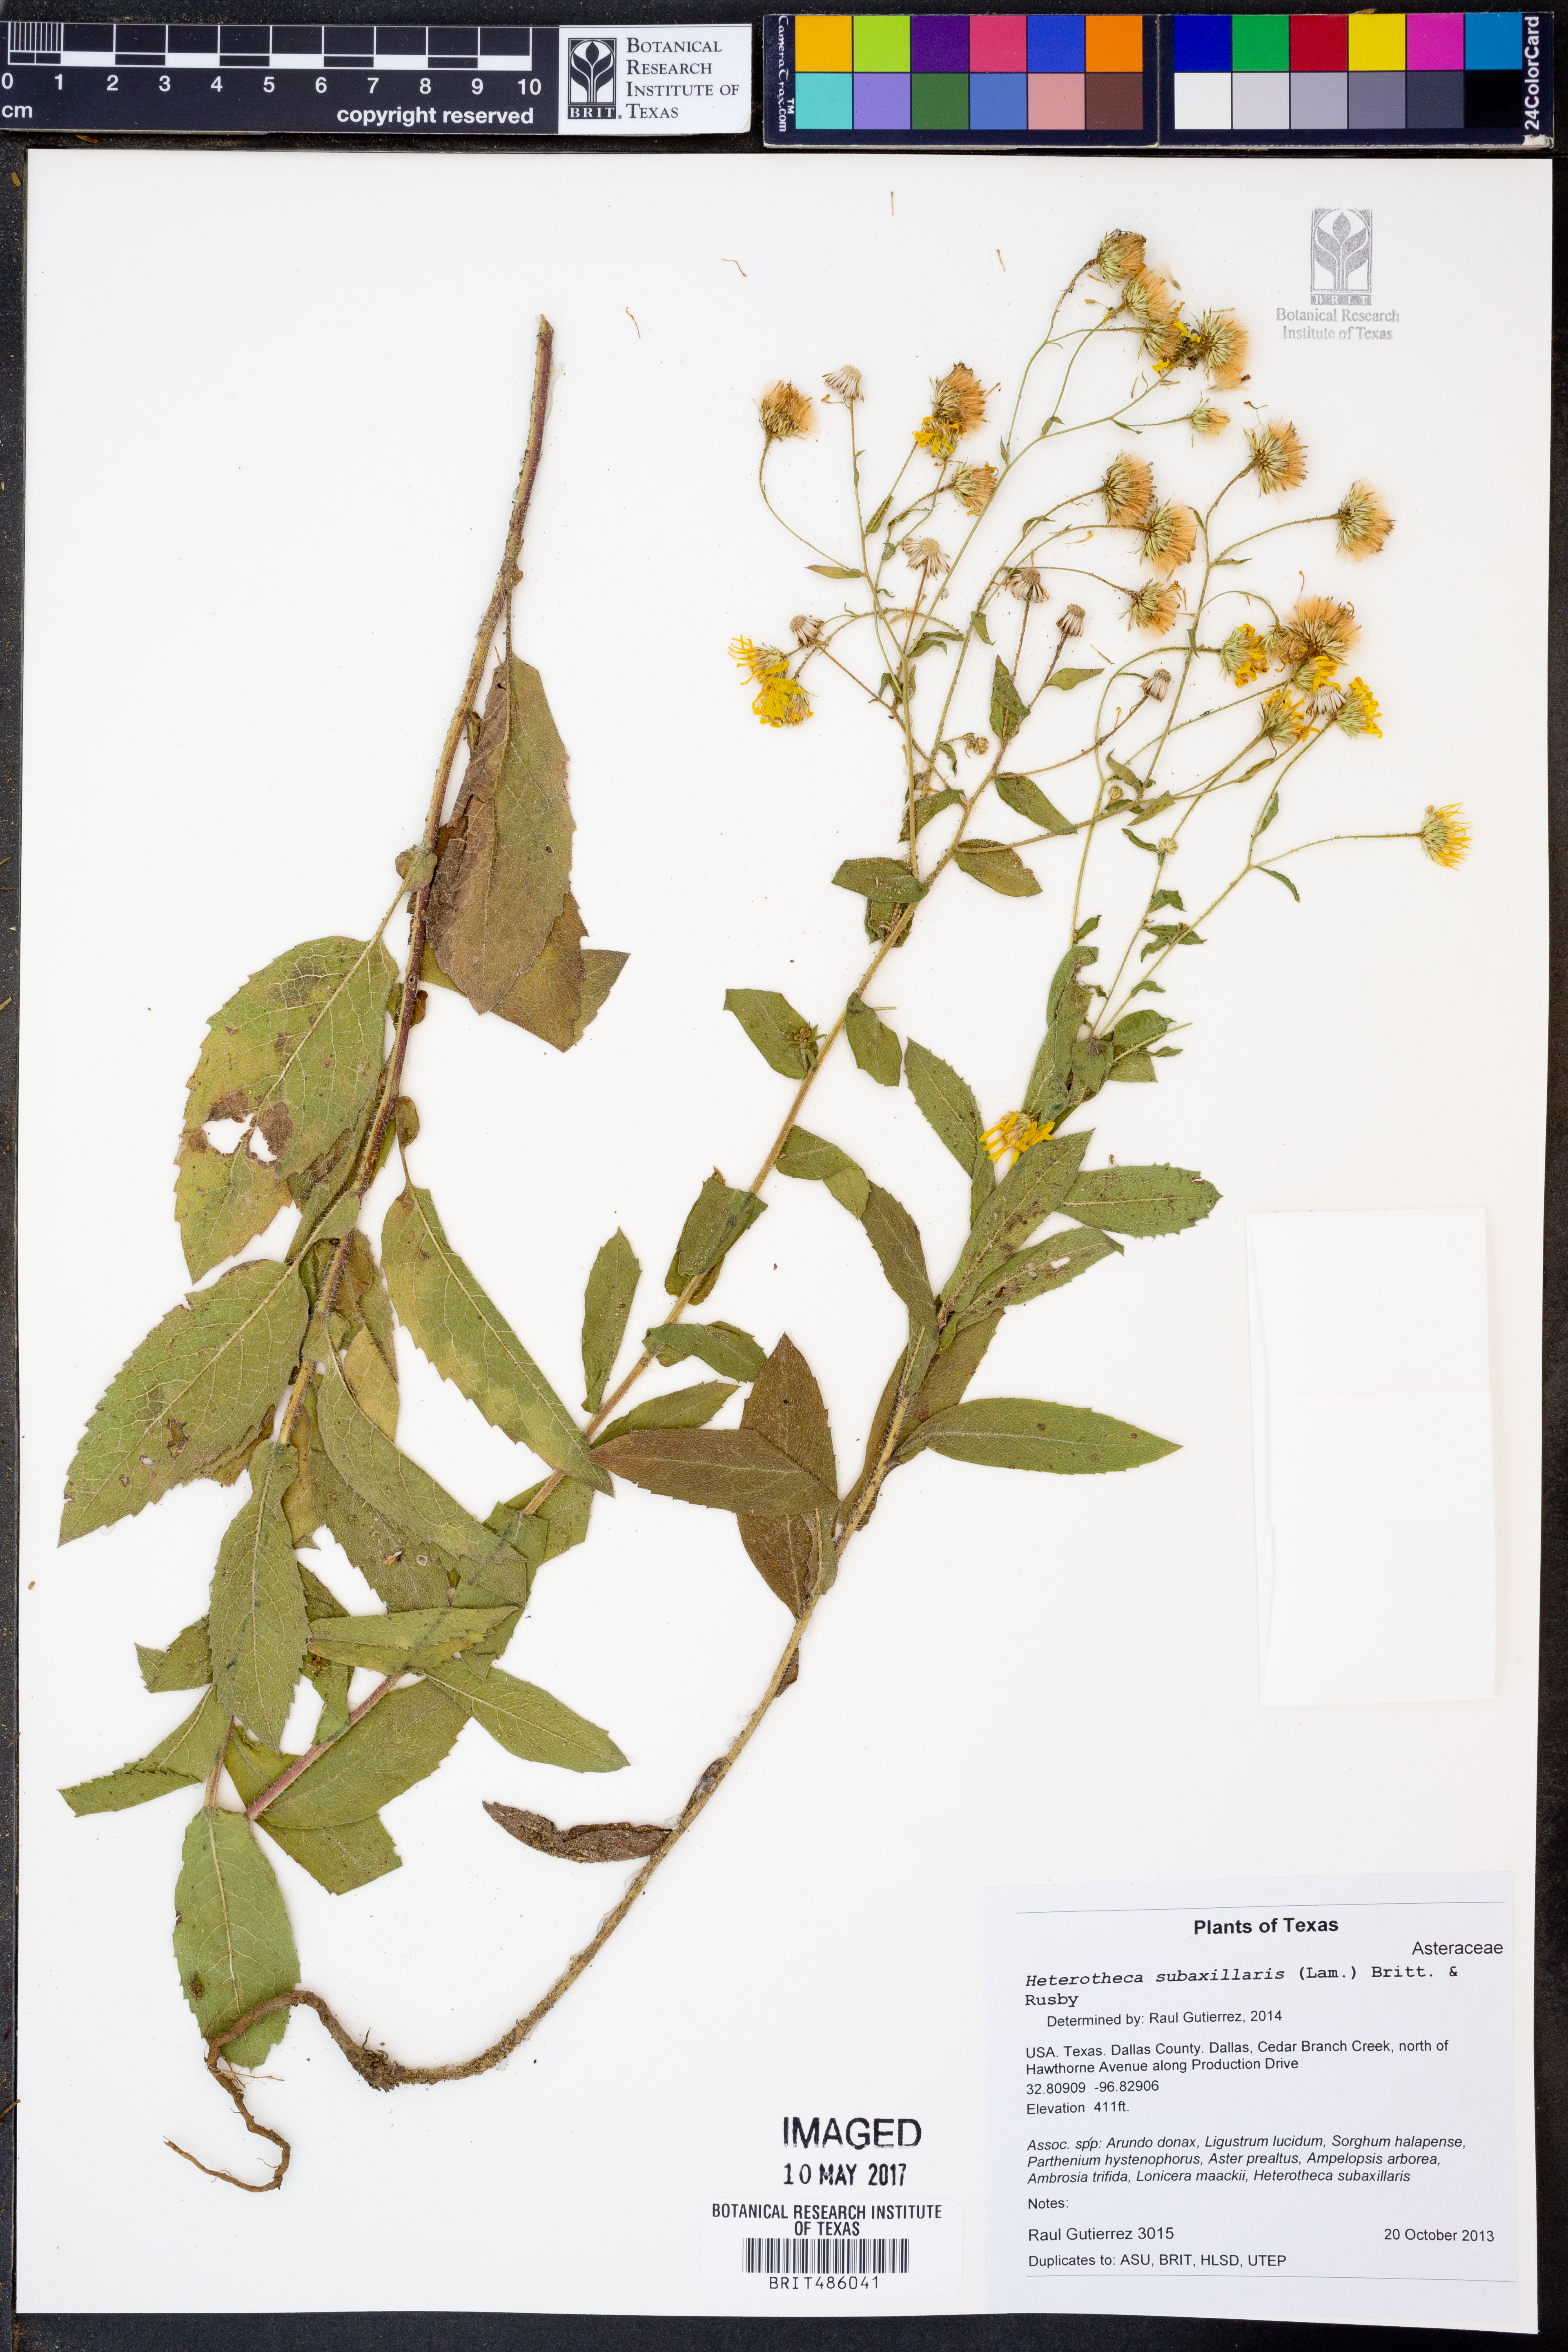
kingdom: Plantae
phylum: Tracheophyta
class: Magnoliopsida
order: Asterales
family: Asteraceae
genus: Heterotheca
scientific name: Heterotheca subaxillaris
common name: Camphorweed
